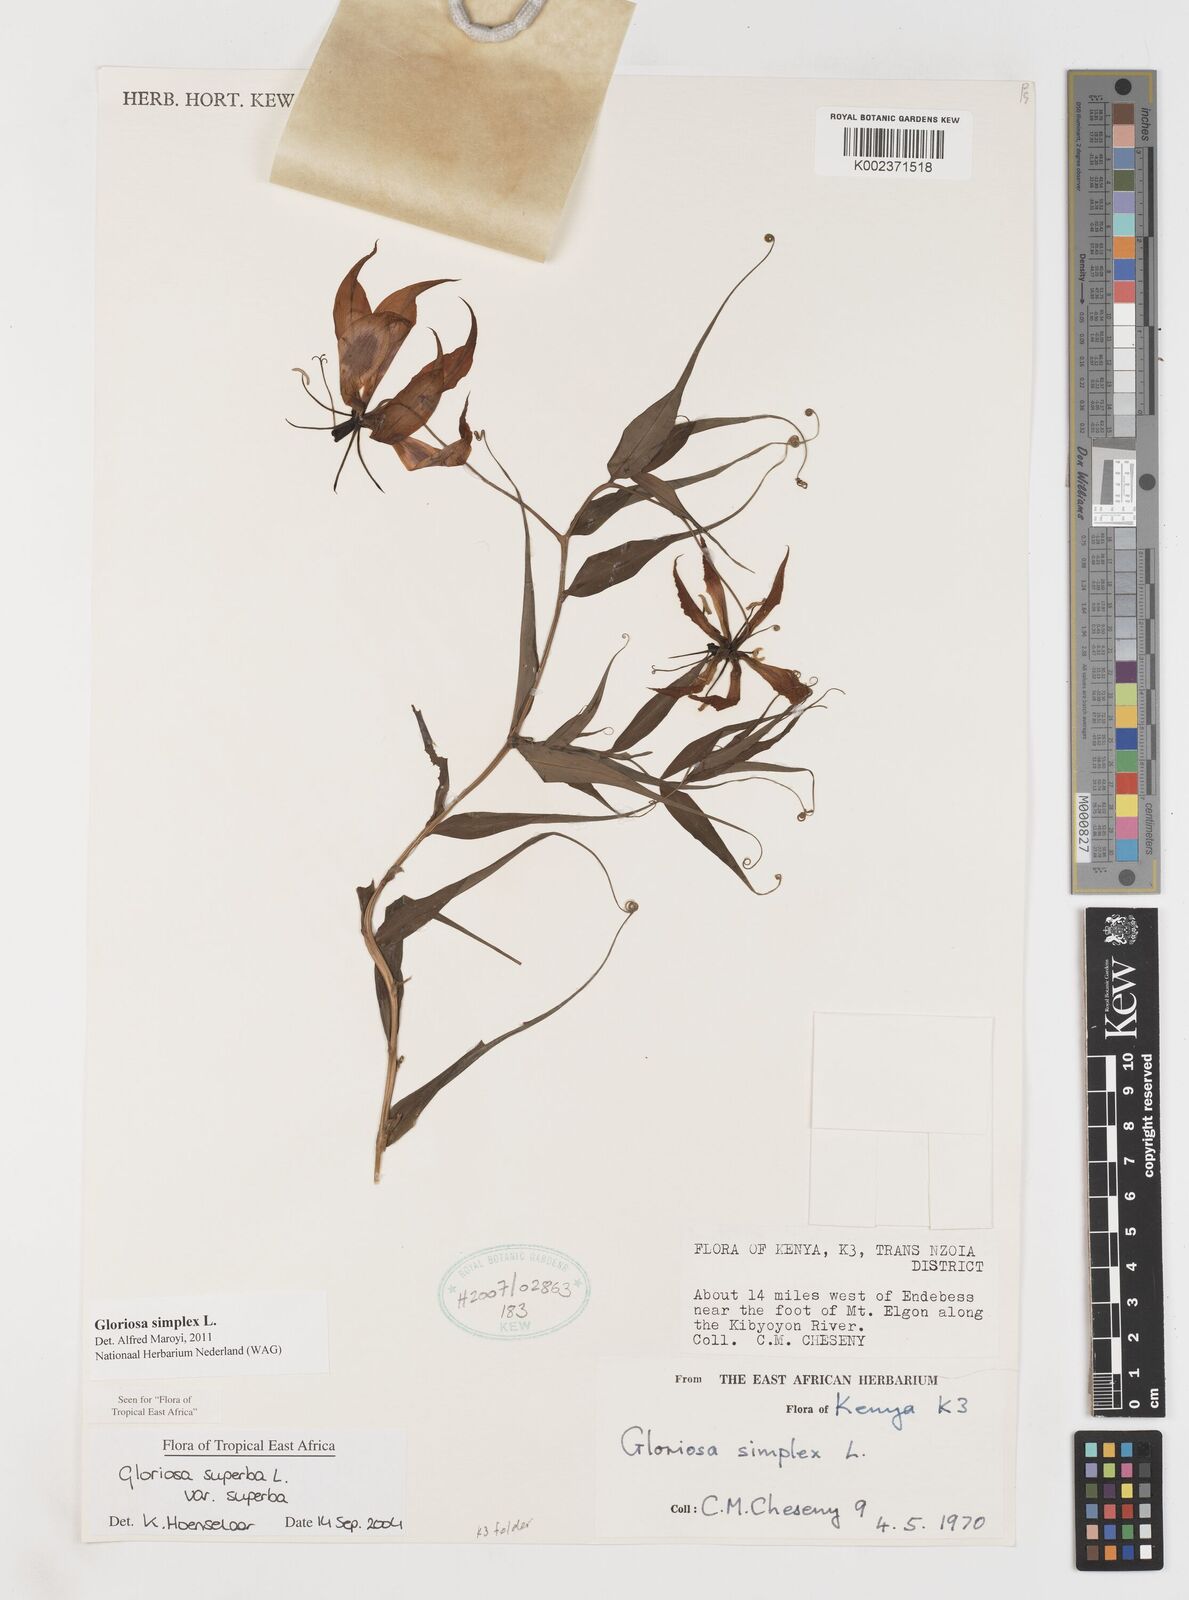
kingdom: Plantae
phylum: Tracheophyta
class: Liliopsida
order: Liliales
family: Colchicaceae
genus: Gloriosa
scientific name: Gloriosa simplex
